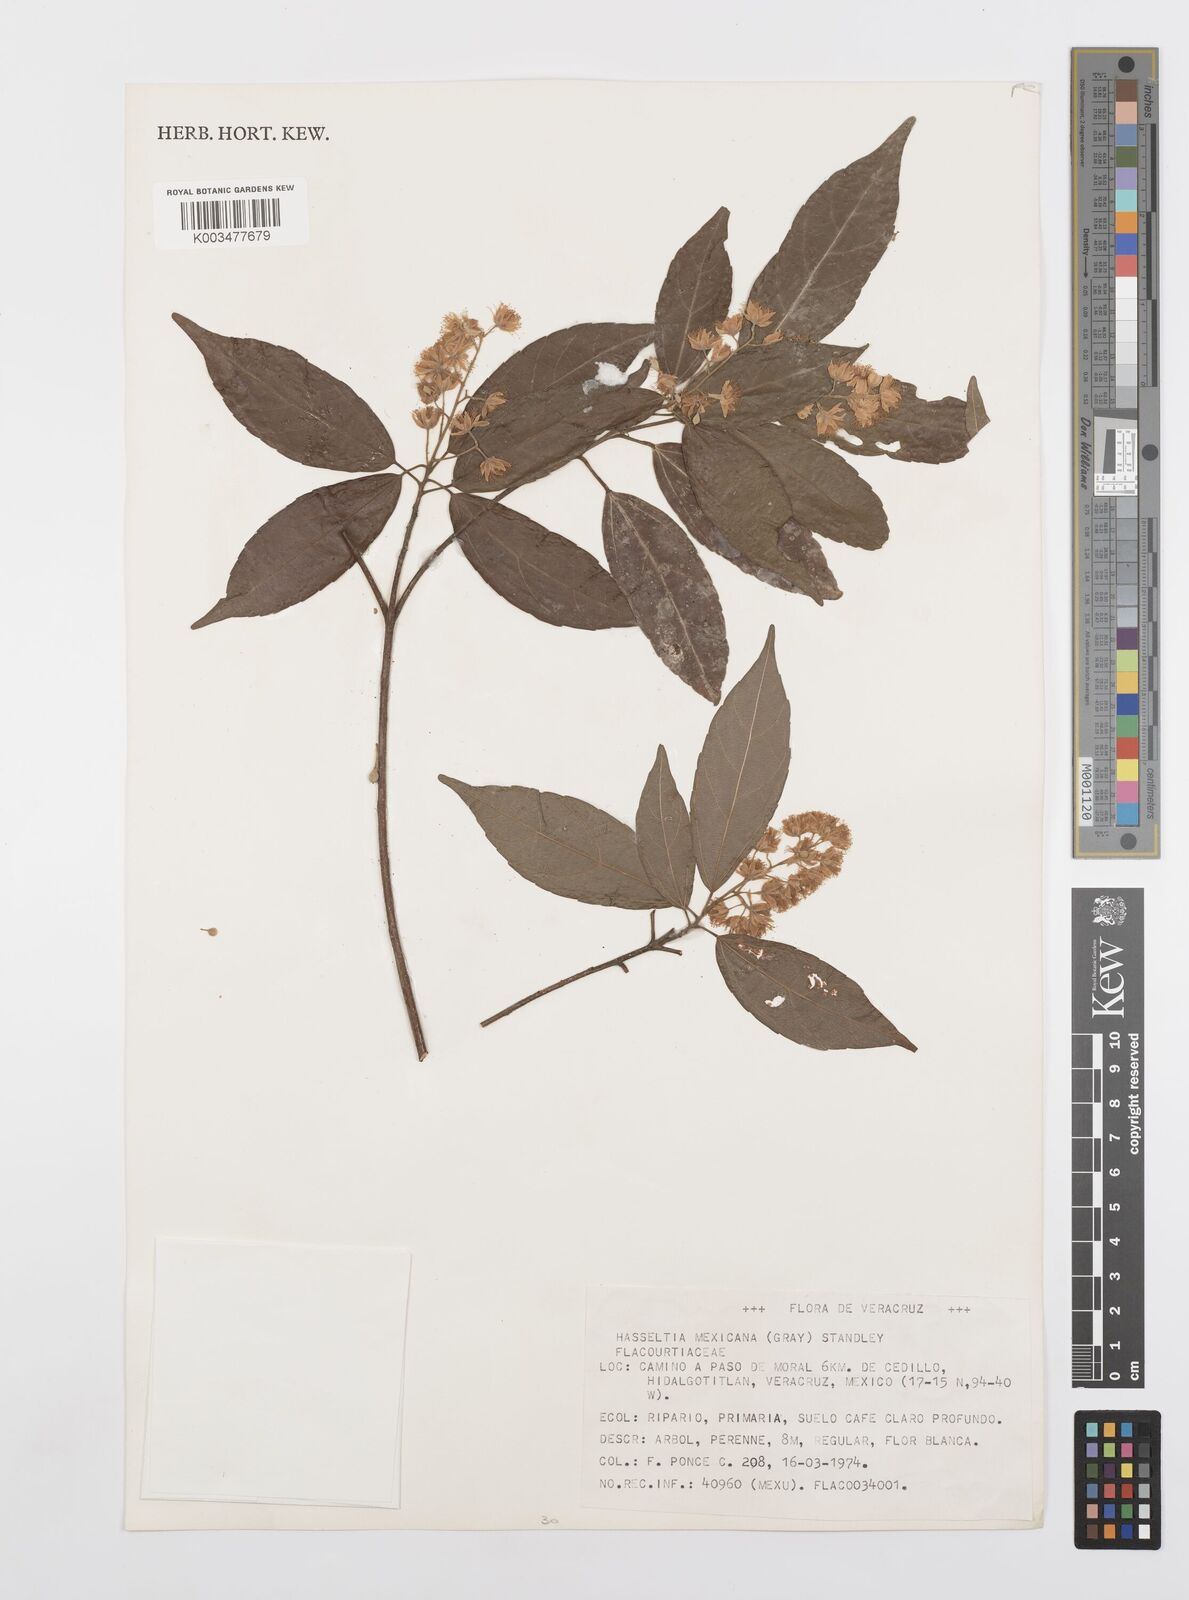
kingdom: Plantae
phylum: Tracheophyta
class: Magnoliopsida
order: Malpighiales
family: Salicaceae
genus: Pleuranthodendron
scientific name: Pleuranthodendron lindenii
